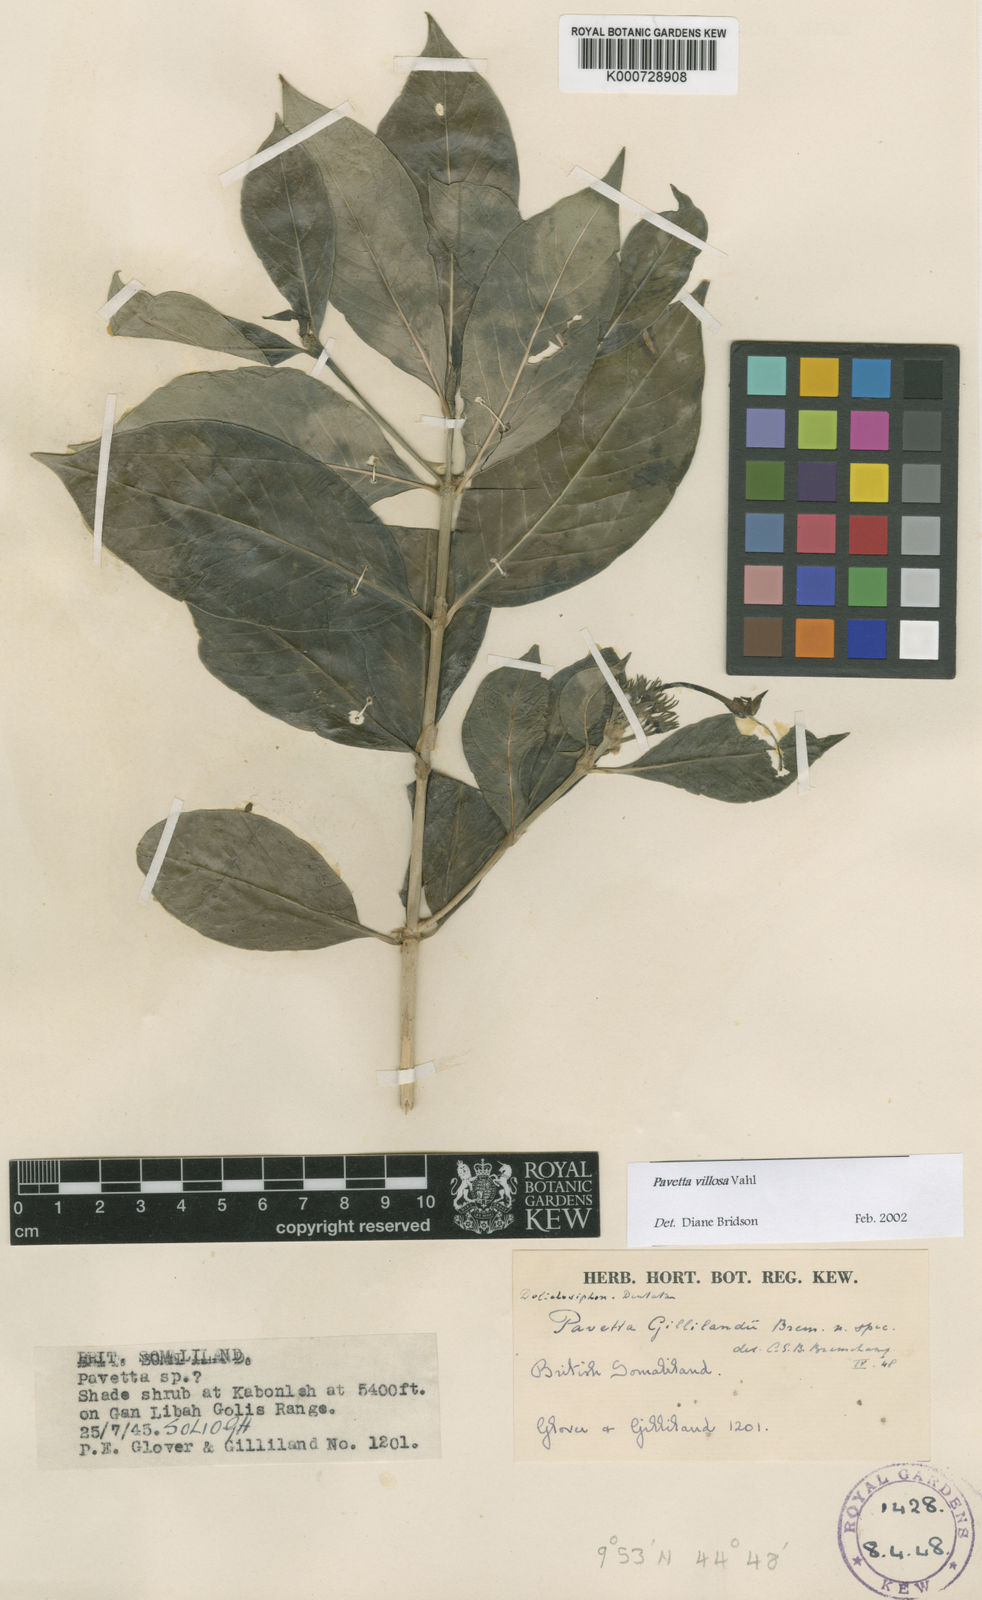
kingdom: Plantae
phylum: Tracheophyta
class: Magnoliopsida
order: Gentianales
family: Rubiaceae
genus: Pavetta
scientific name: Pavetta villosa
